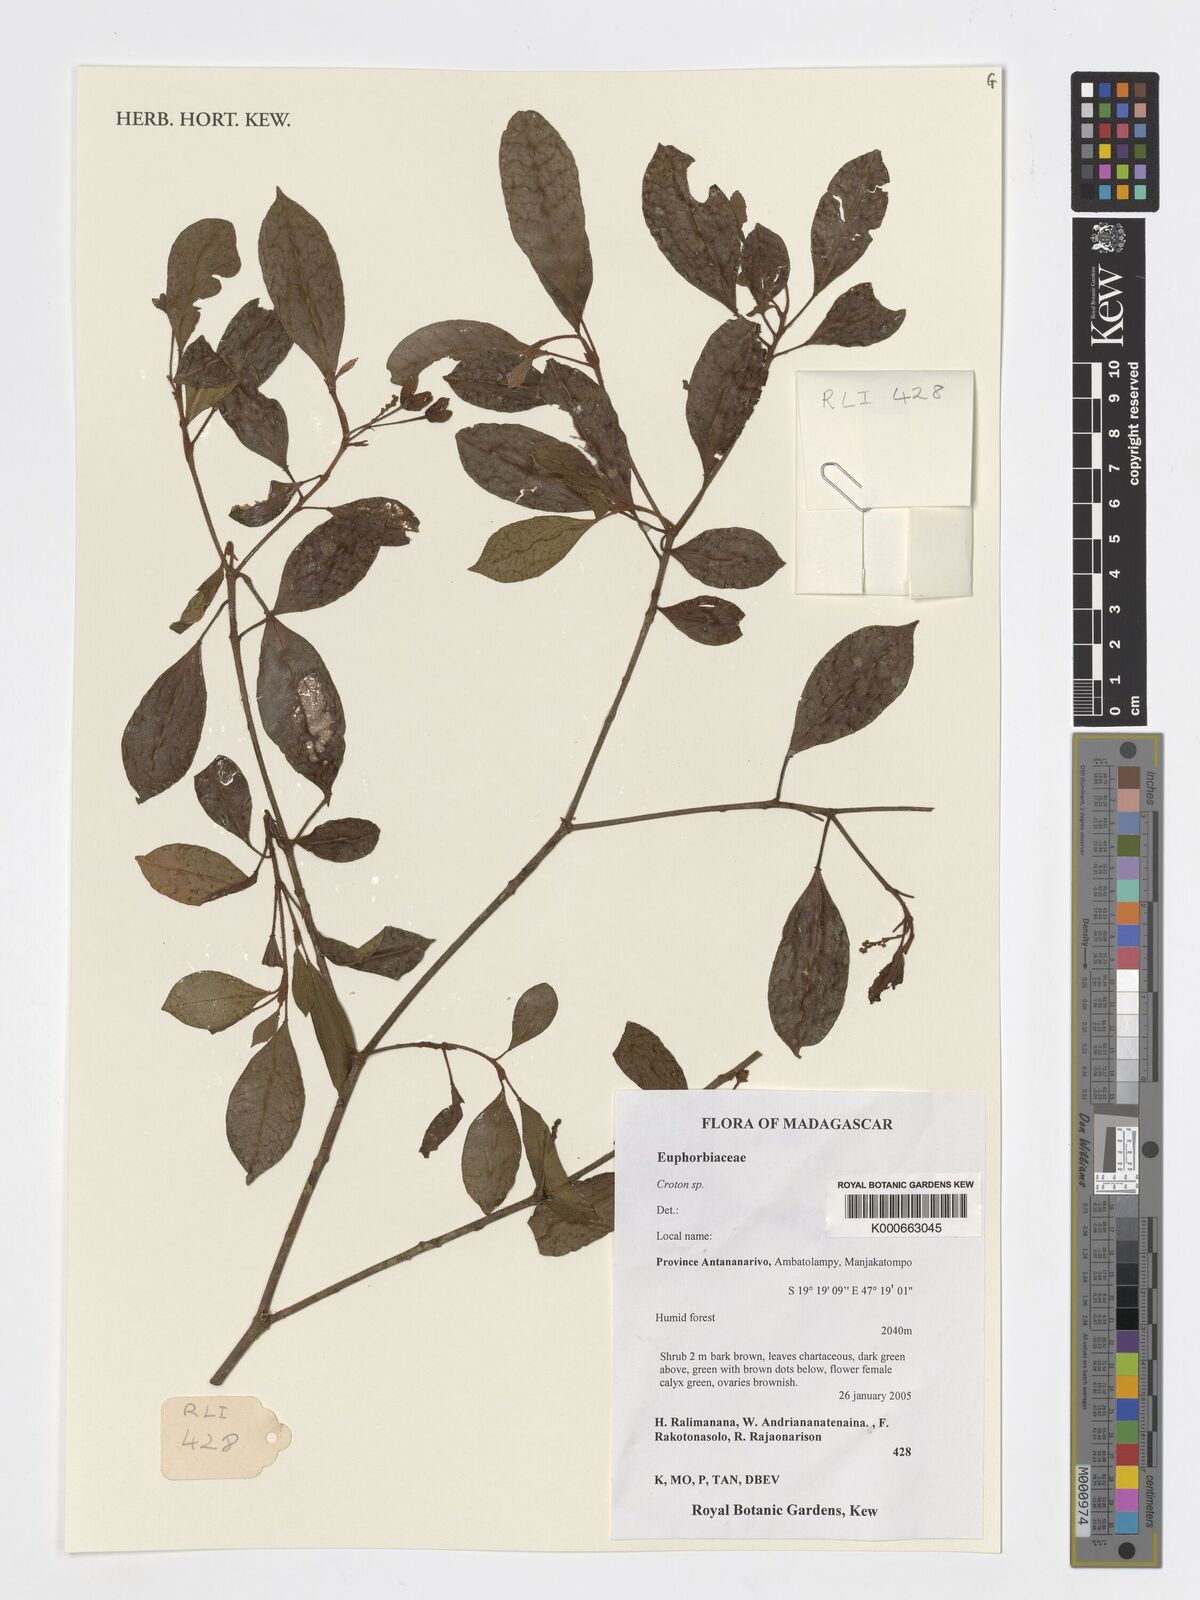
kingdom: Plantae
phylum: Tracheophyta
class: Magnoliopsida
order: Malpighiales
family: Euphorbiaceae
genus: Croton
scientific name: Croton
